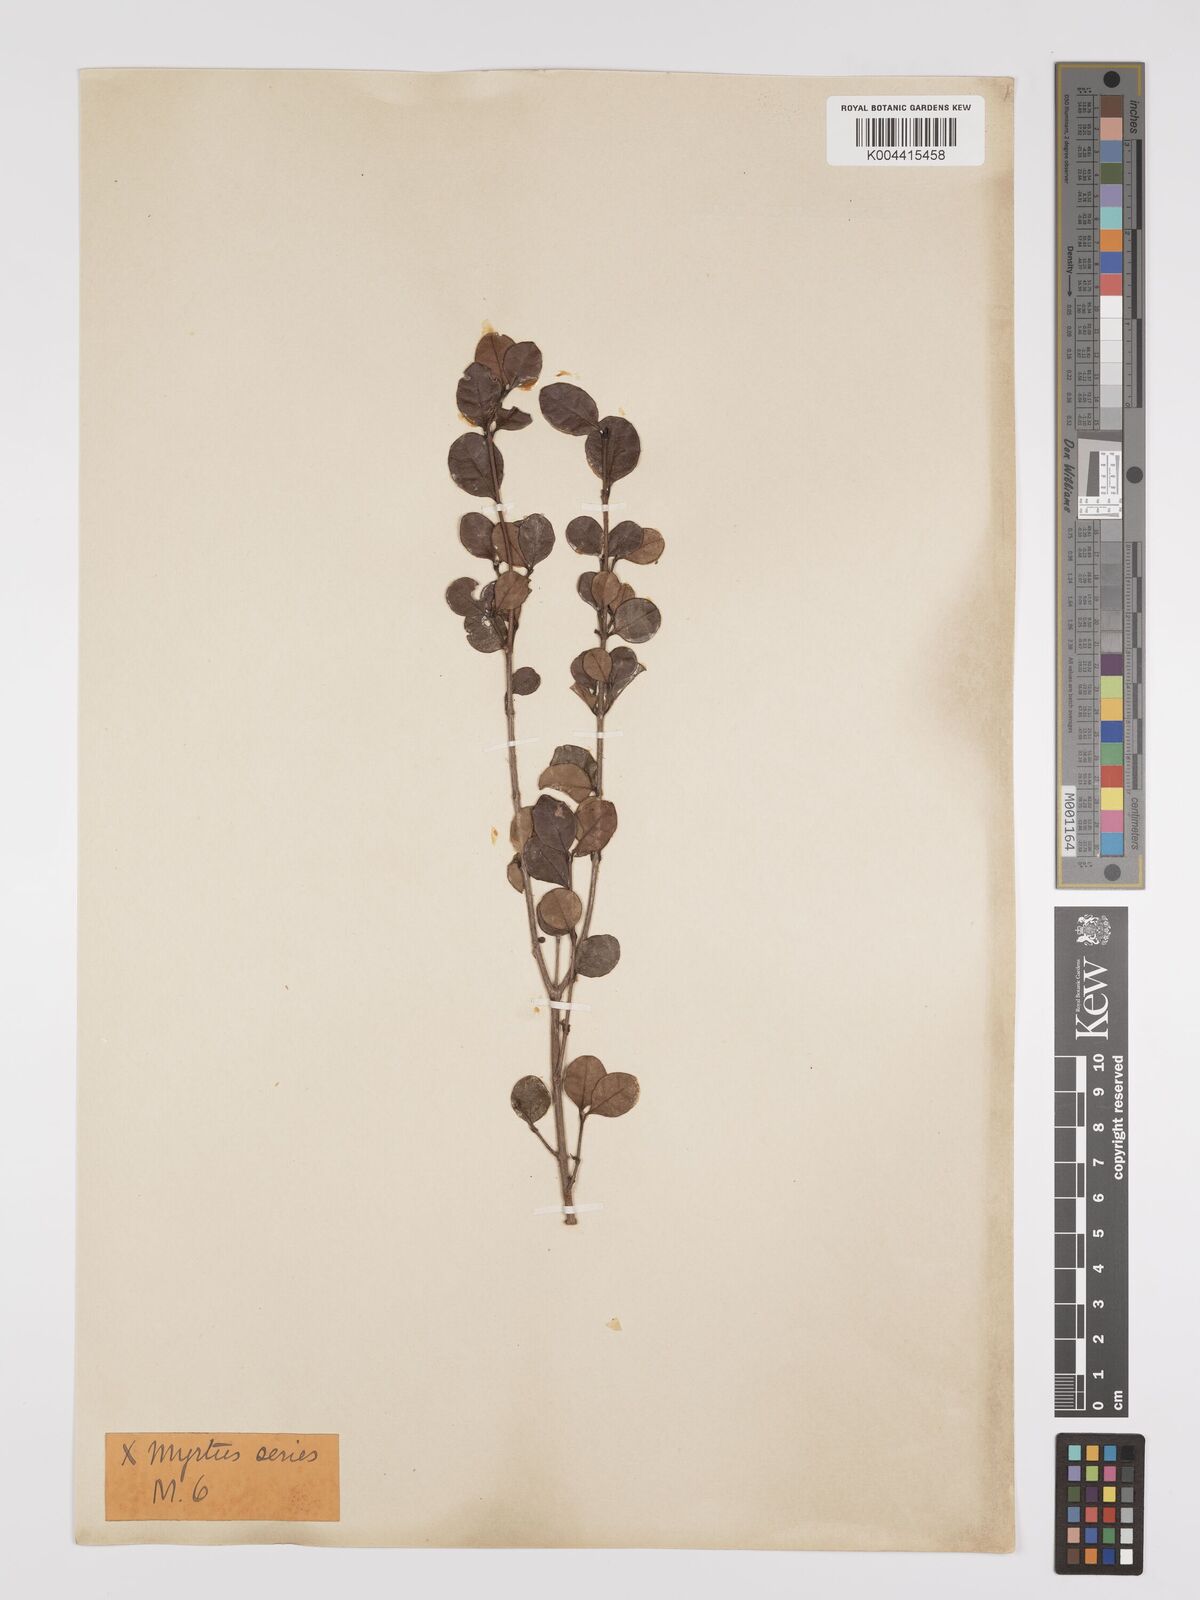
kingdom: Plantae
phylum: Tracheophyta
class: Magnoliopsida
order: Myrtales
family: Myrtaceae
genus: Lophomyrtus
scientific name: Lophomyrtus bullata
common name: Rama rama
